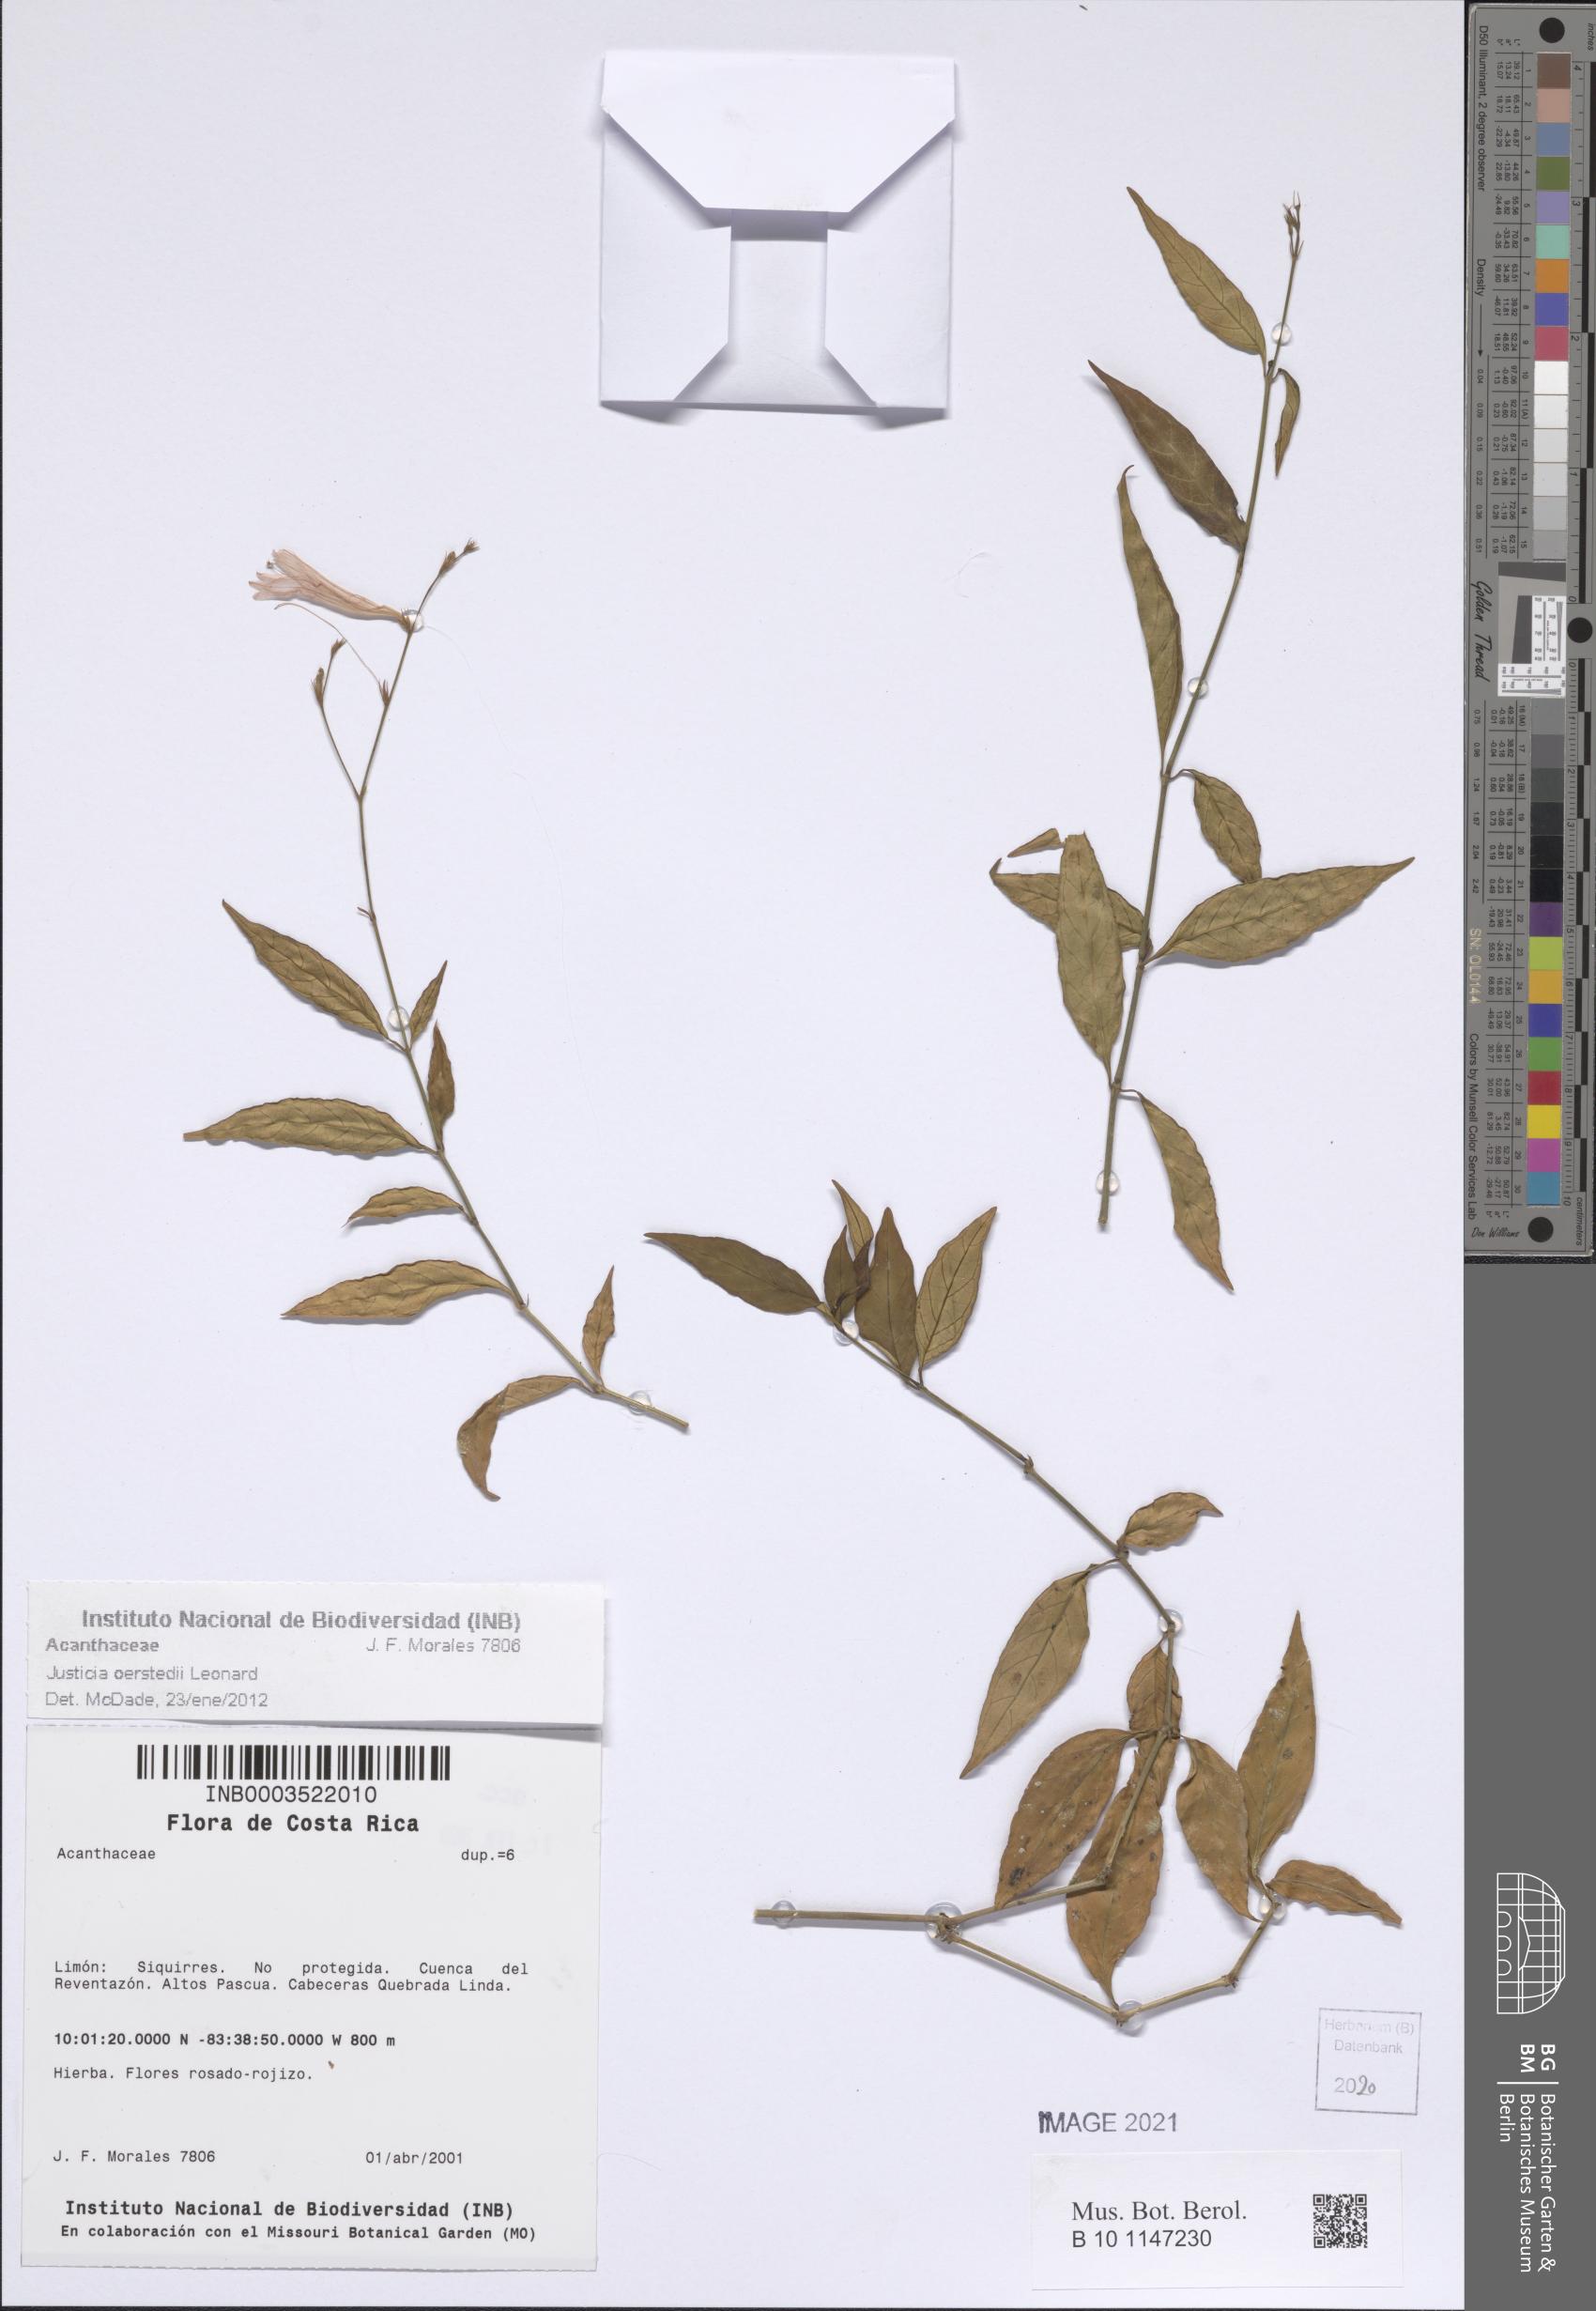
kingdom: Plantae
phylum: Tracheophyta
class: Magnoliopsida
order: Lamiales
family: Acanthaceae
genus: Dianthera
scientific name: Dianthera glabra
